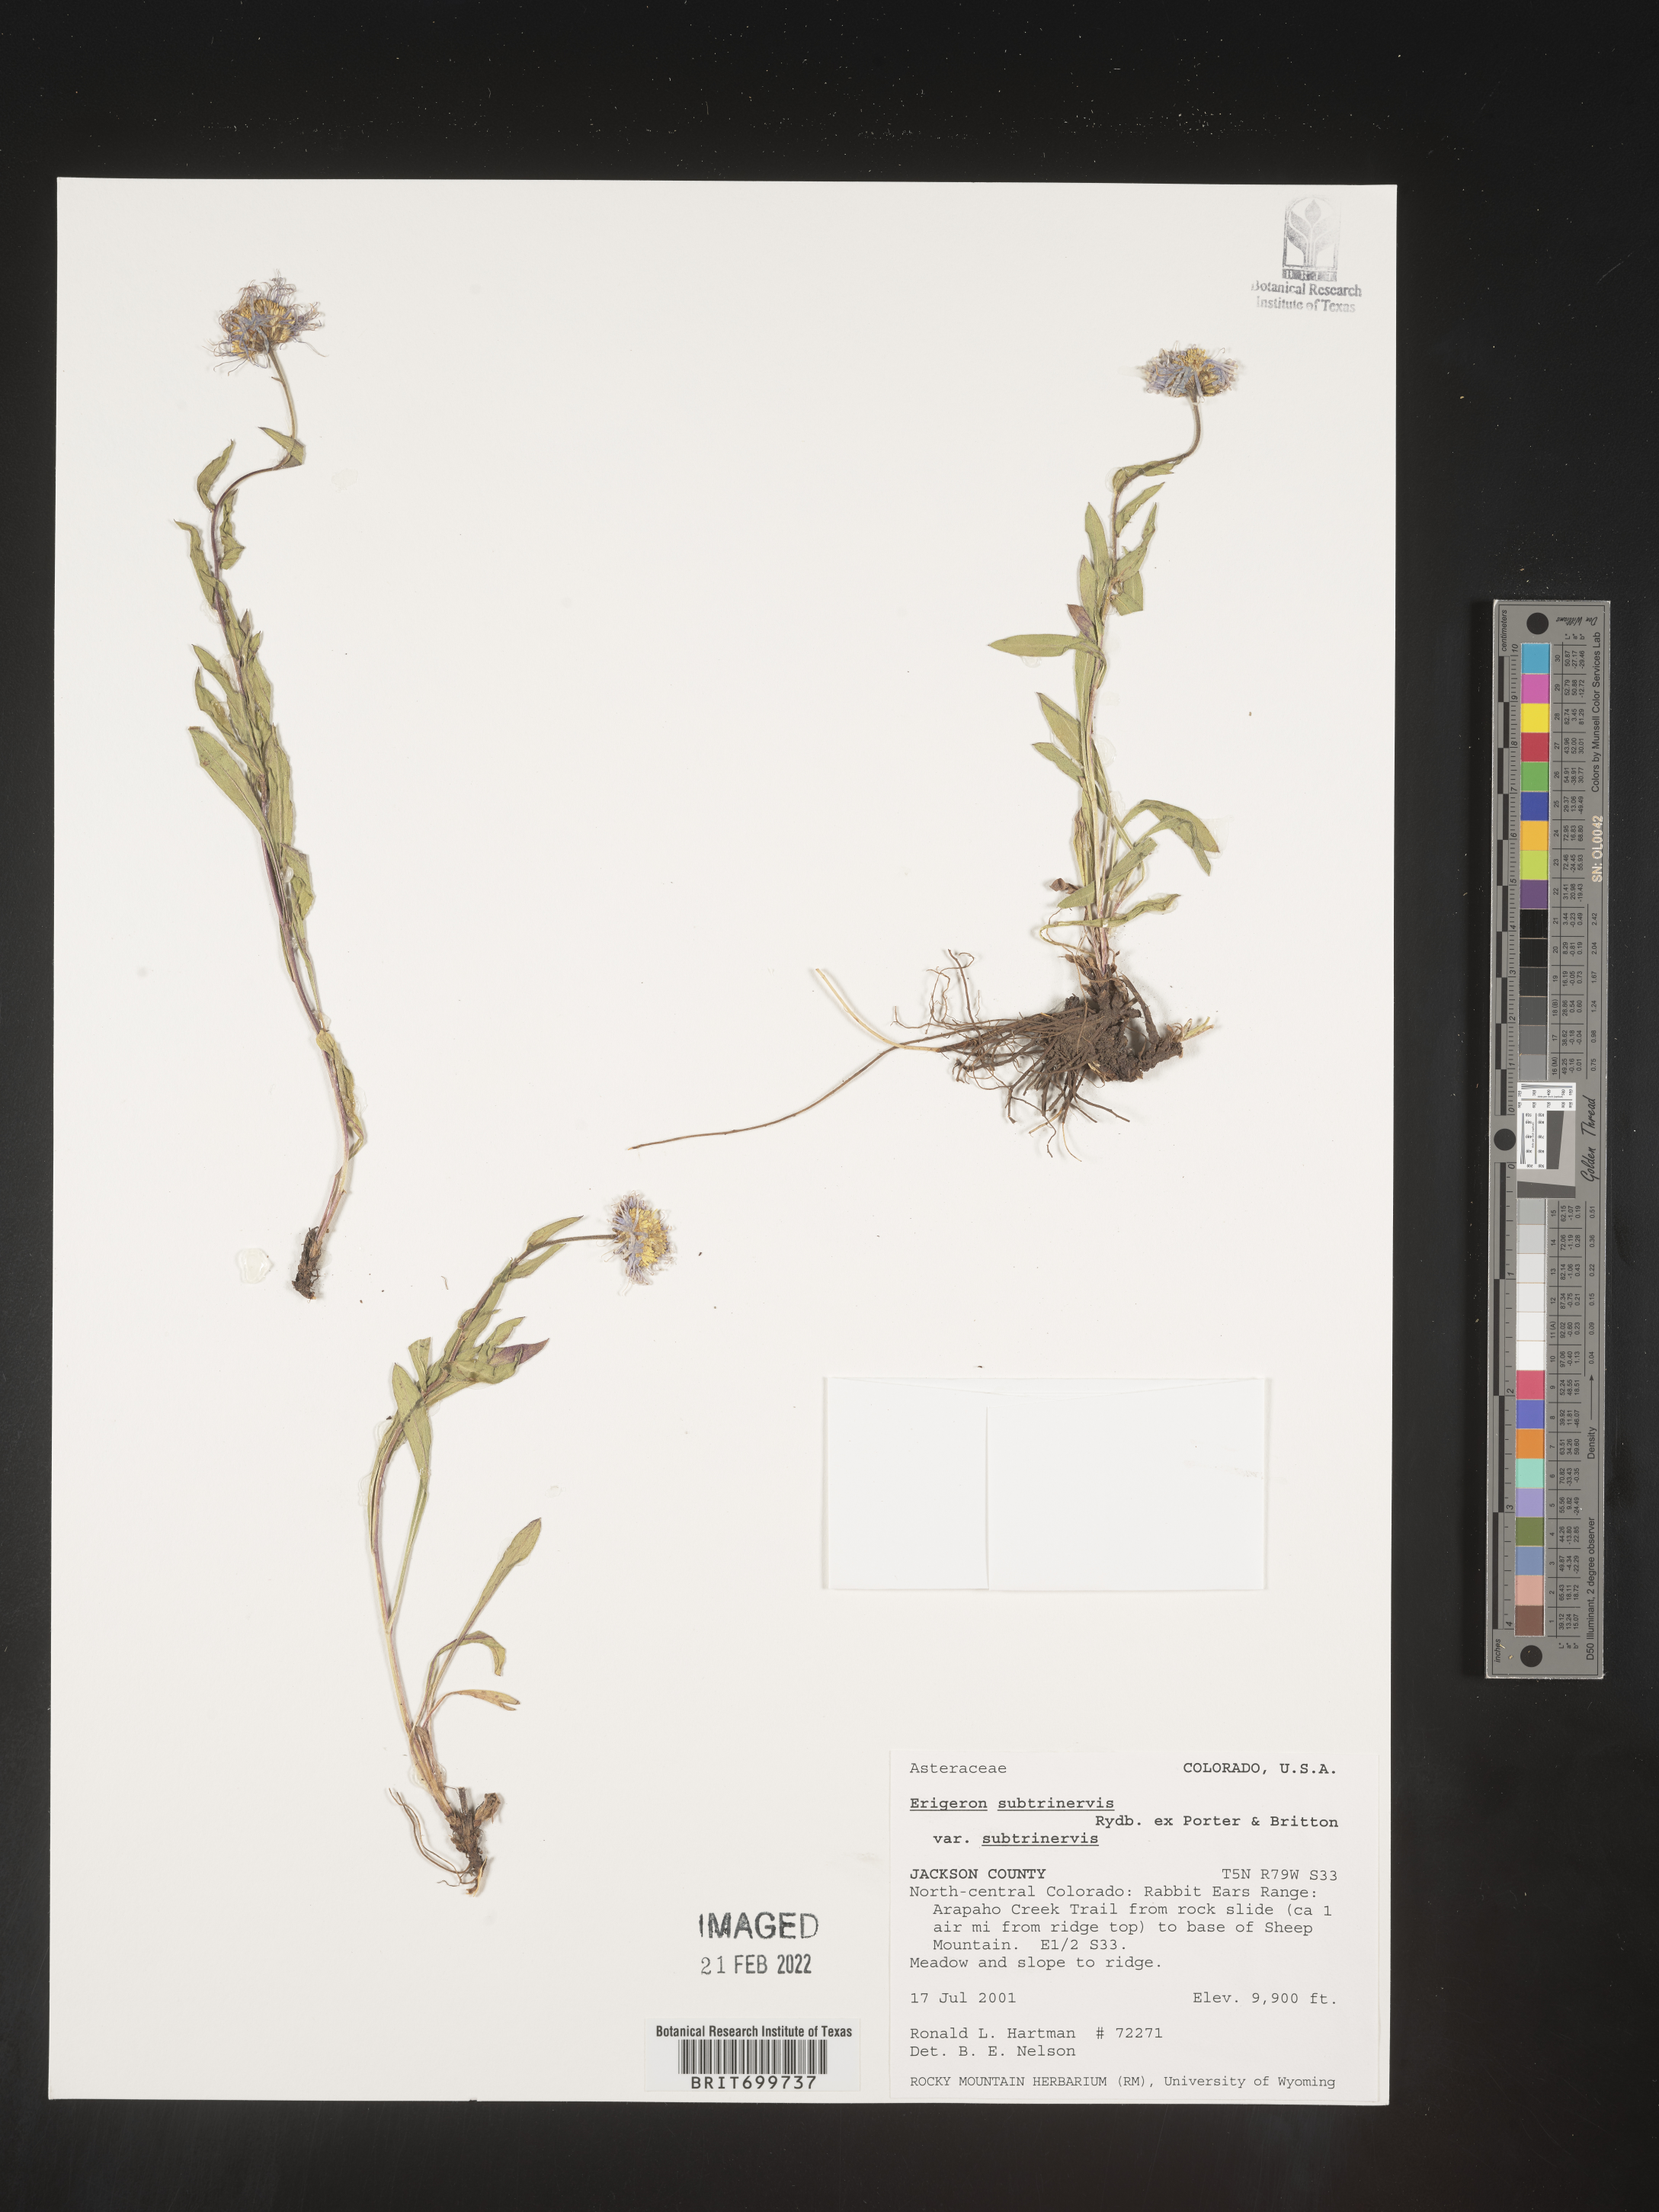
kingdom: Plantae
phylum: Tracheophyta
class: Magnoliopsida
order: Asterales
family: Asteraceae
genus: Erigeron
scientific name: Erigeron subtrinervis
